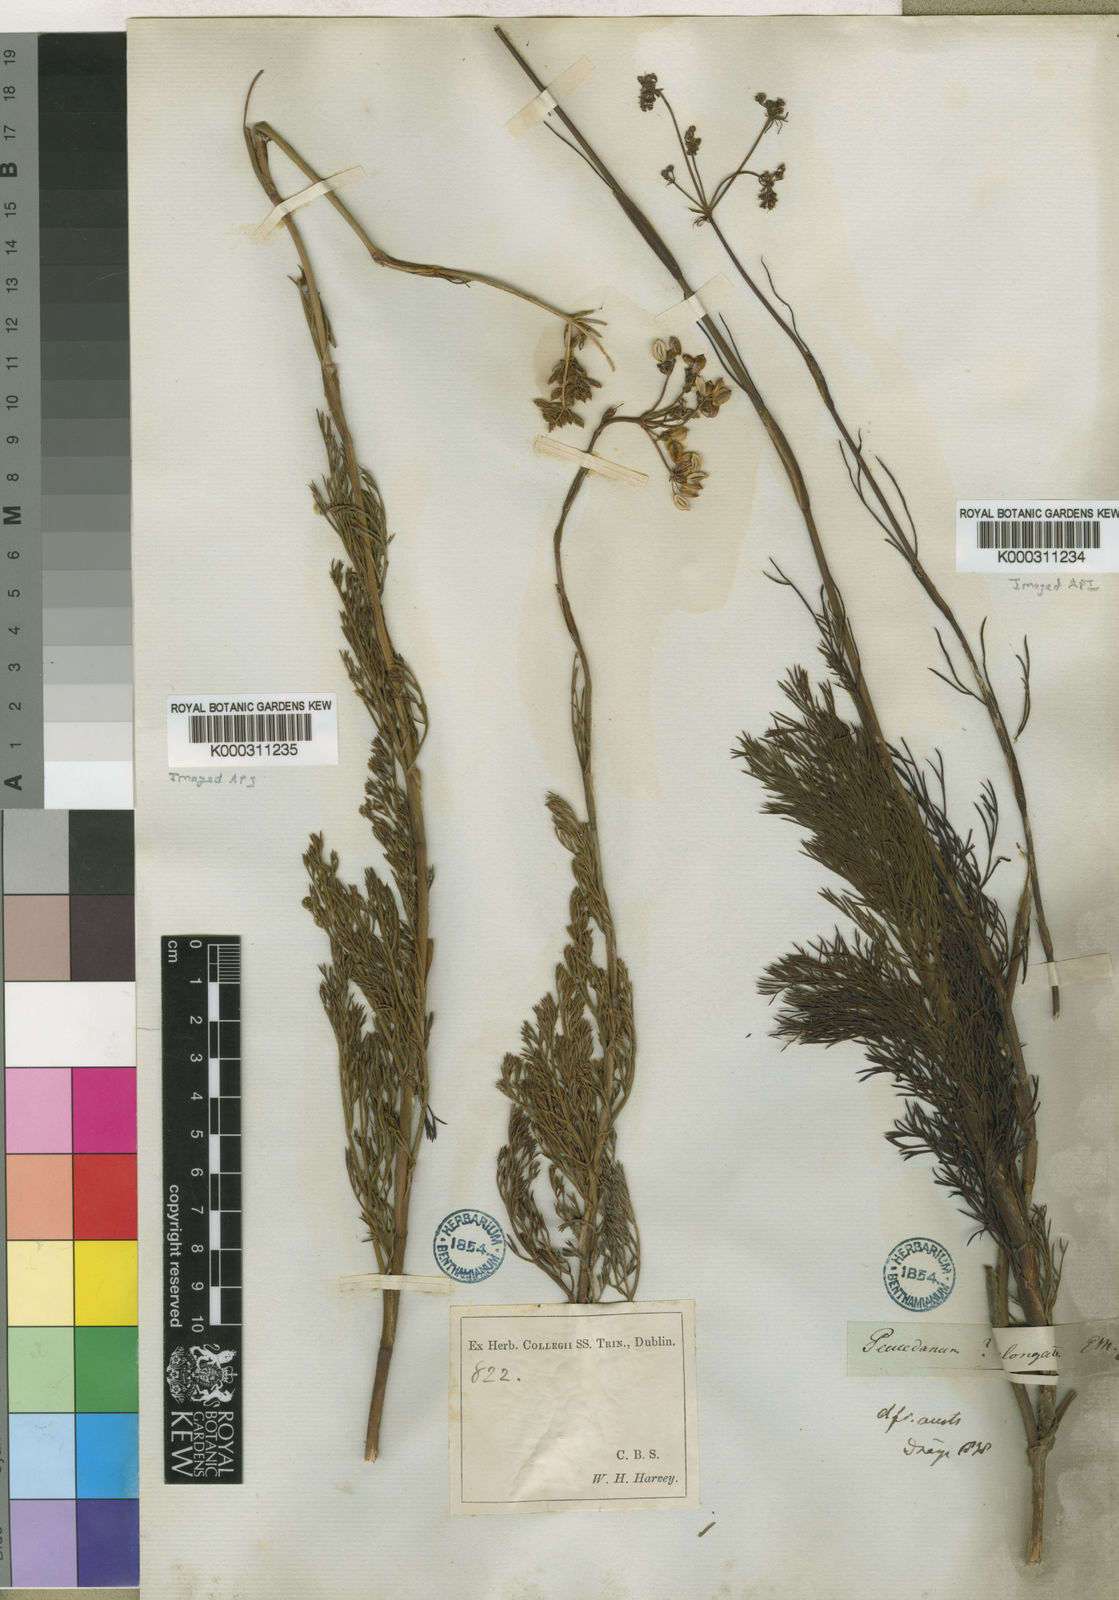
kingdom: Plantae
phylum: Tracheophyta
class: Magnoliopsida
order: Apiales
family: Apiaceae
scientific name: Apiaceae
